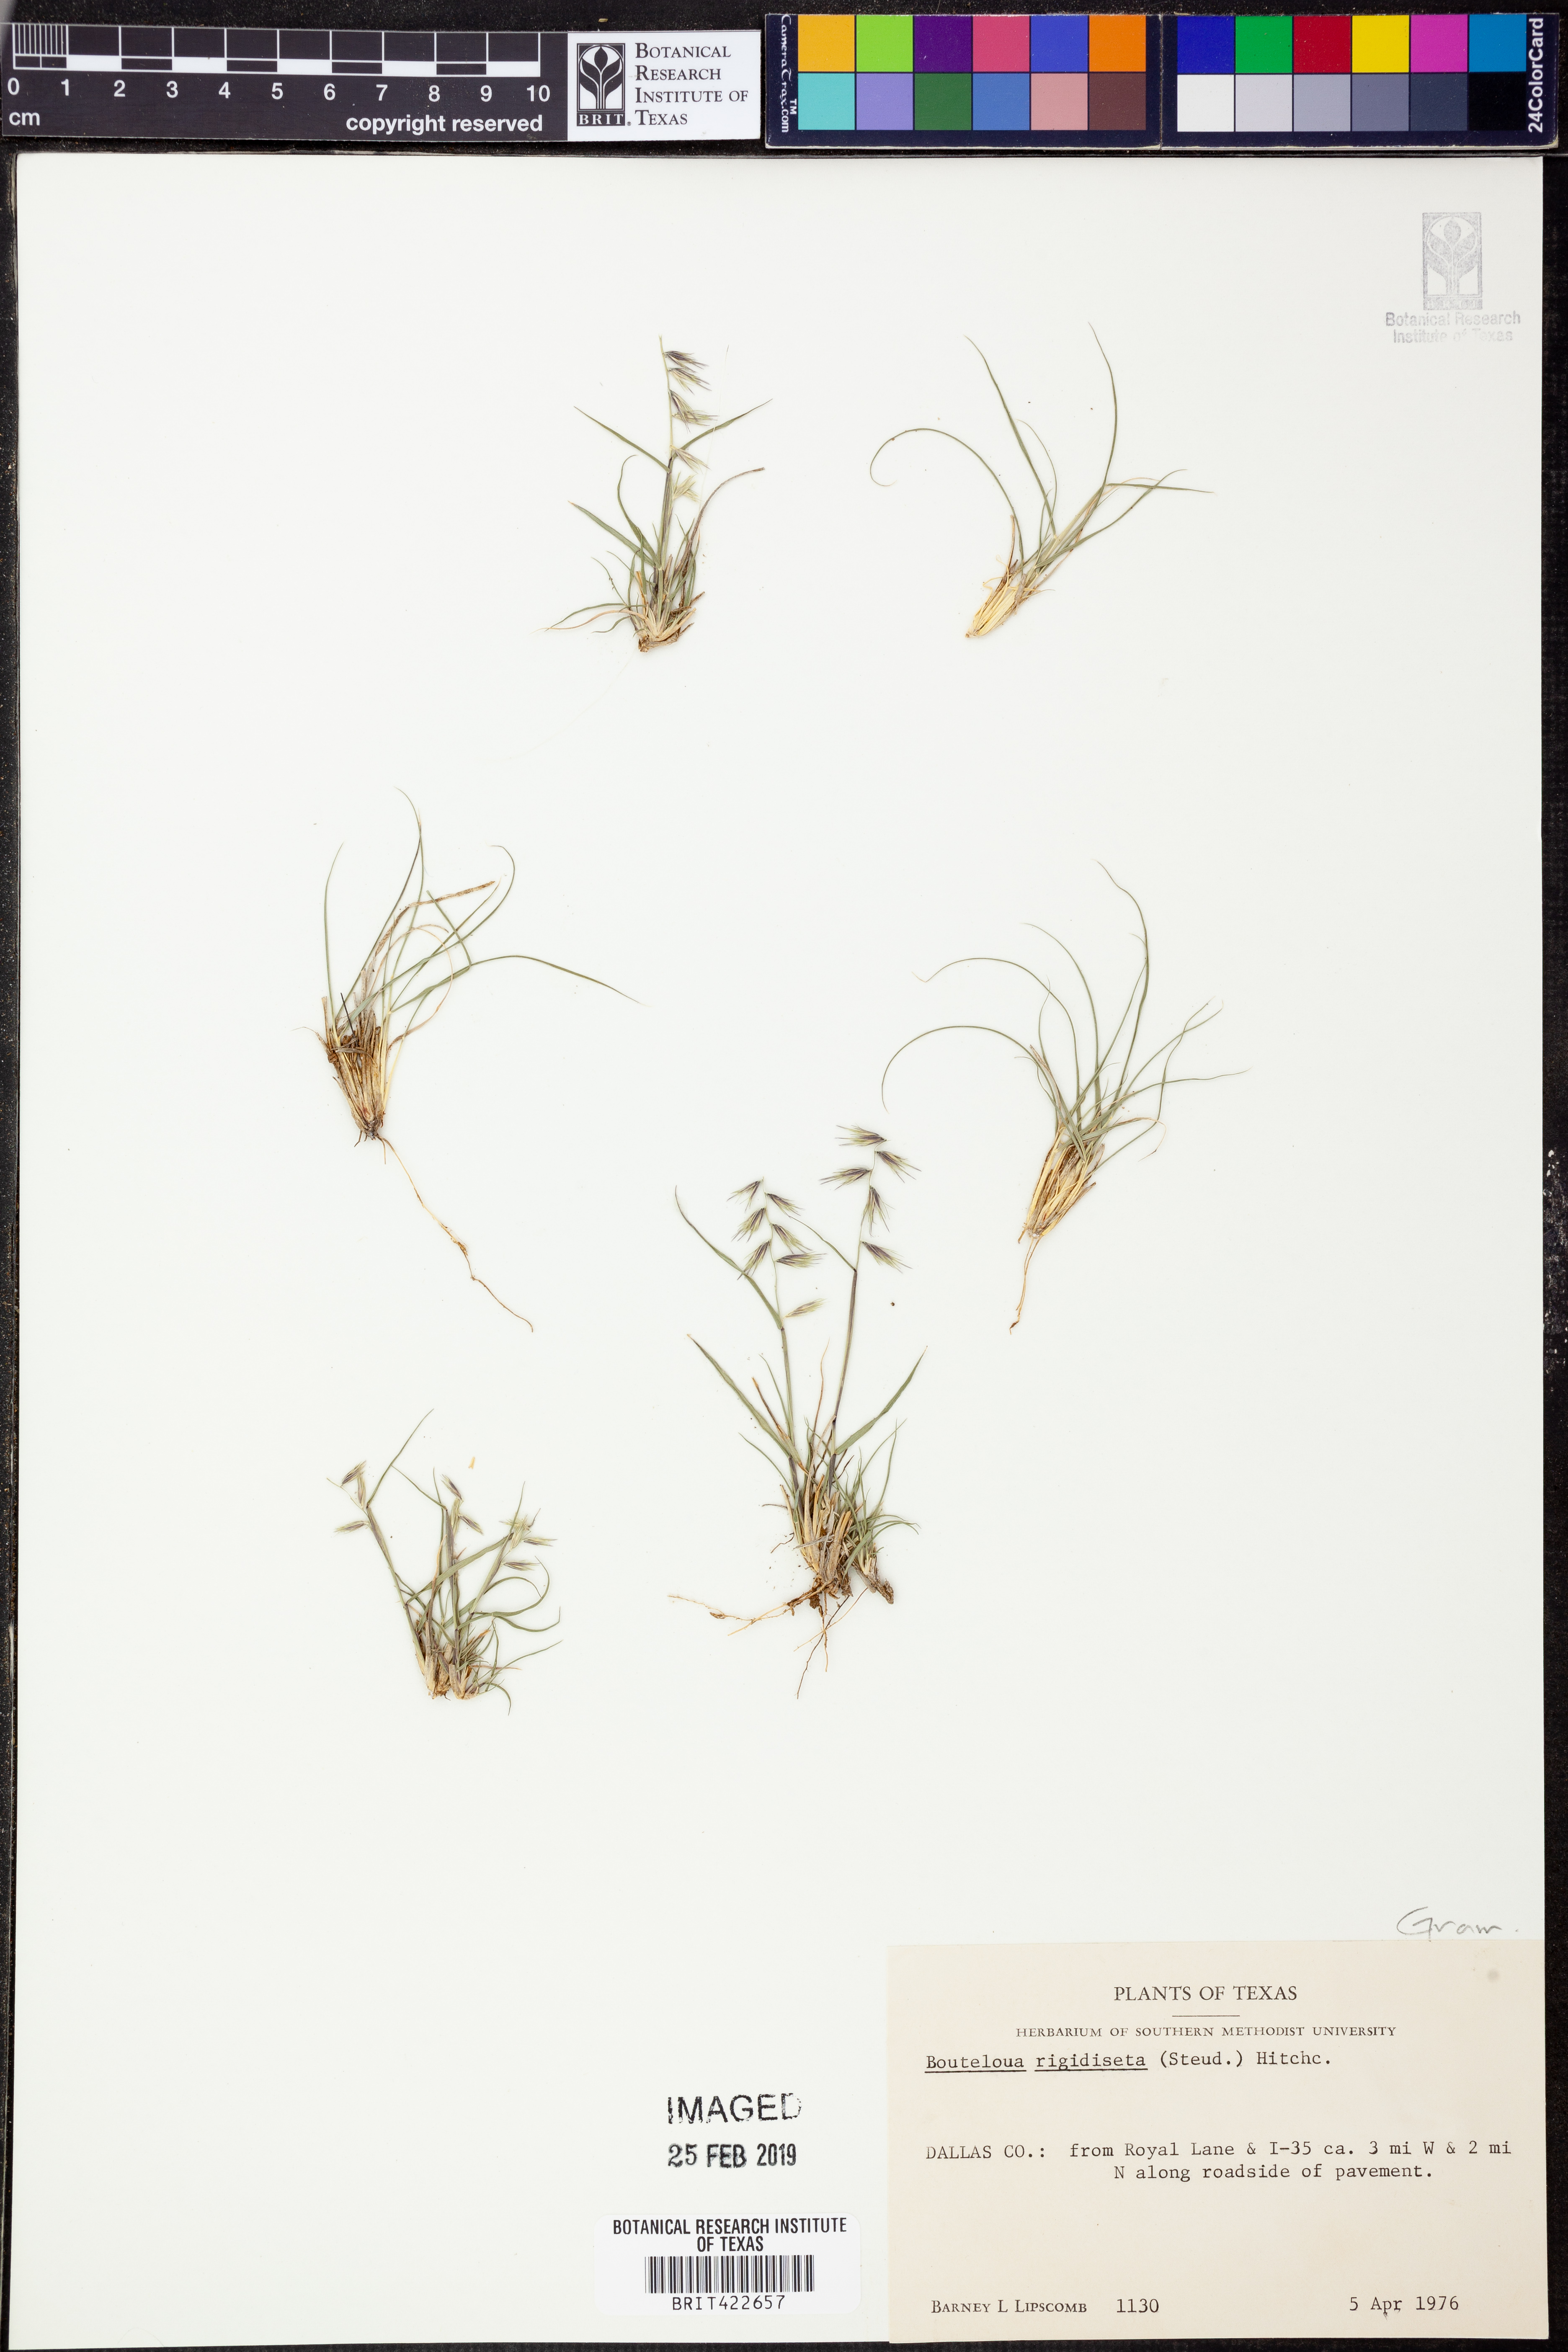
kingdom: Plantae
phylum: Tracheophyta
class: Liliopsida
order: Poales
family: Poaceae
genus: Bouteloua
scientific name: Bouteloua rigidiseta
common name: Texas grama
